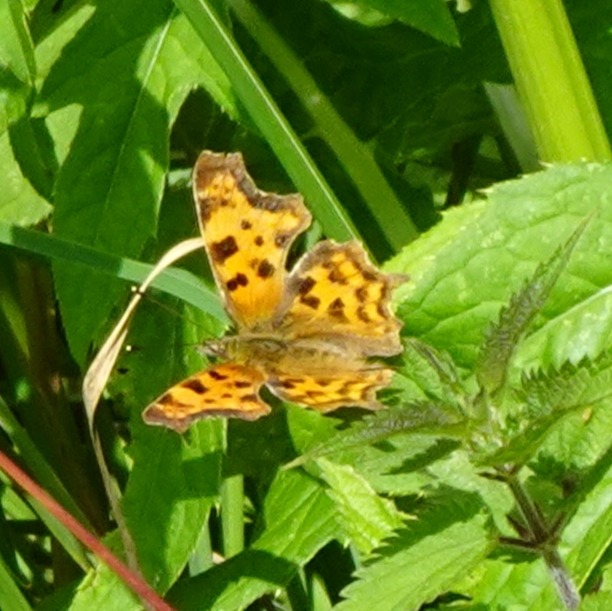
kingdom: Animalia
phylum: Arthropoda
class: Insecta
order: Lepidoptera
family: Nymphalidae
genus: Polygonia
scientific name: Polygonia c-album
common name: Det hvide C
